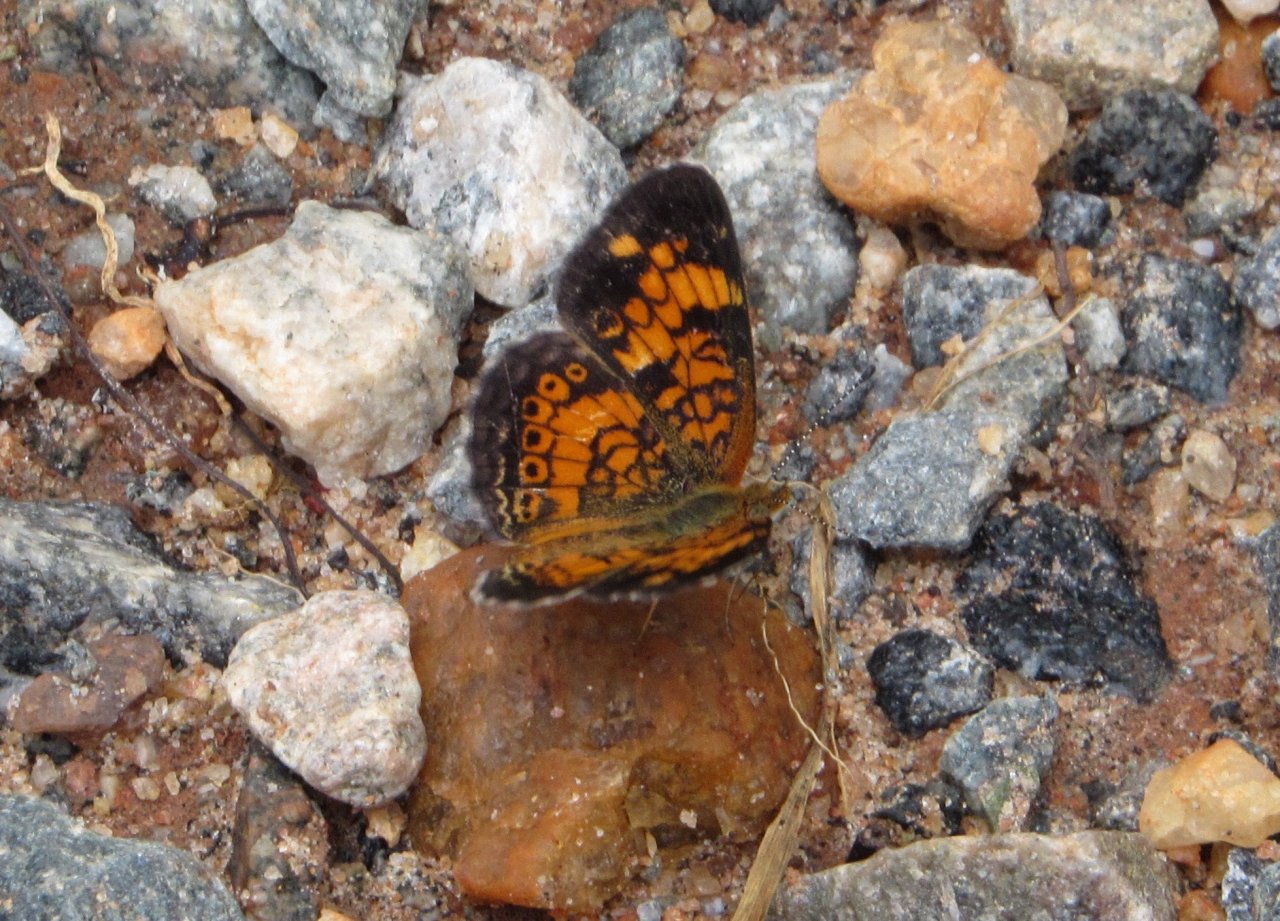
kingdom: Animalia
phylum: Arthropoda
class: Insecta
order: Lepidoptera
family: Nymphalidae
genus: Phyciodes
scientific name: Phyciodes tharos
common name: Pearl Crescent
